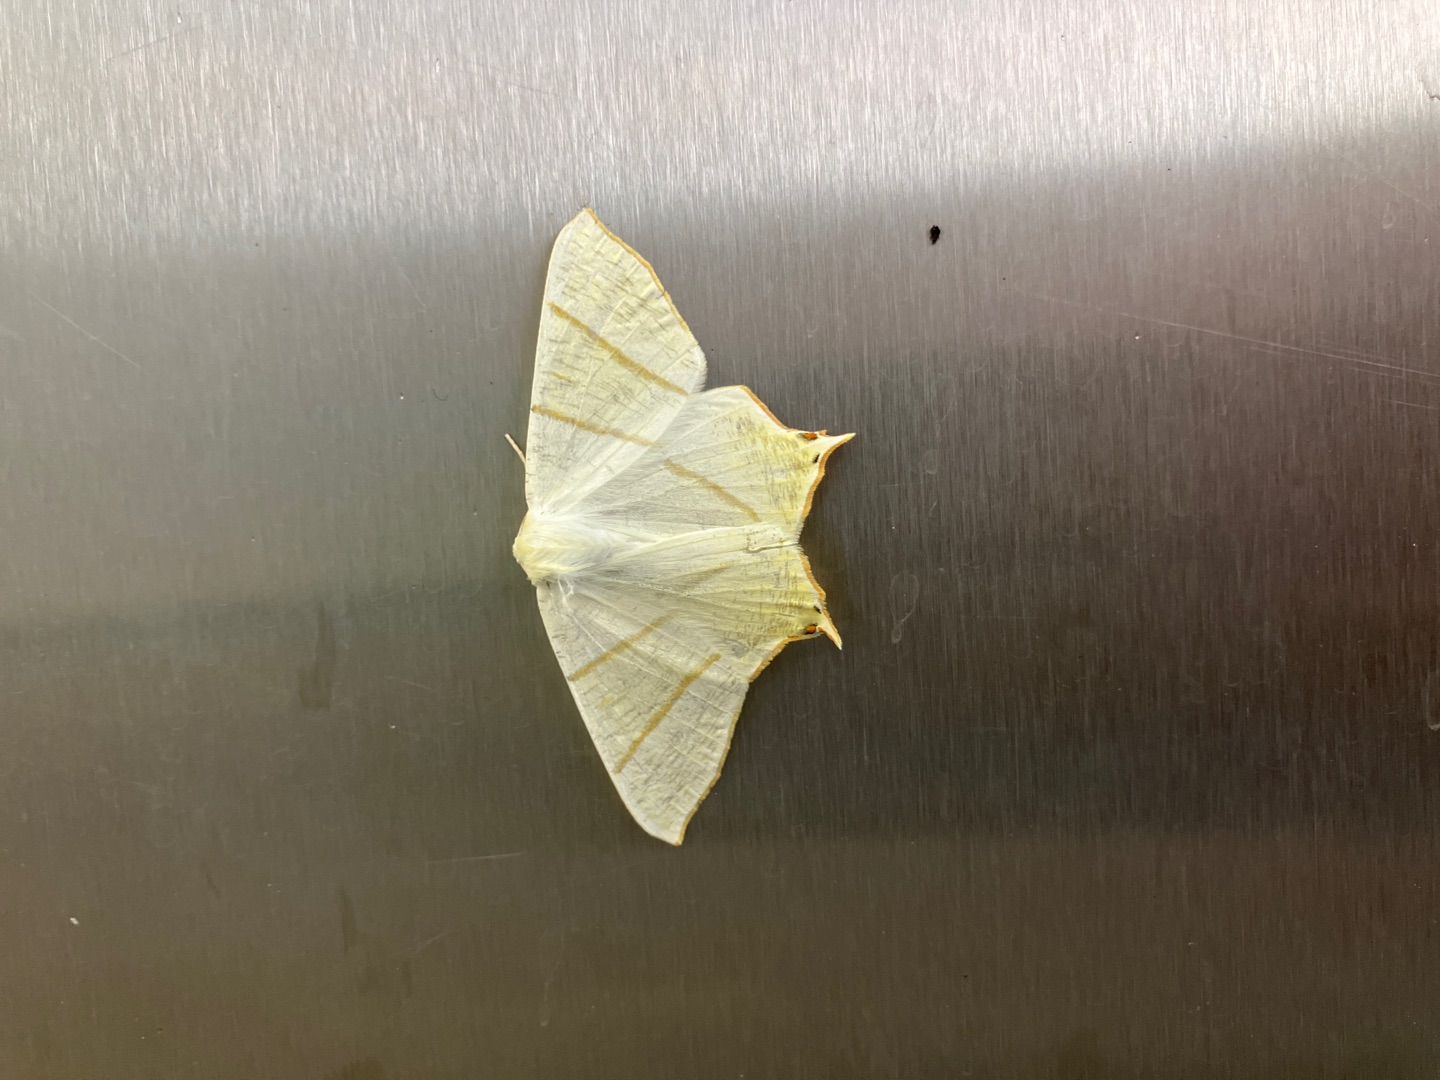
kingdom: Animalia
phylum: Arthropoda
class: Insecta
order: Lepidoptera
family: Geometridae
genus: Ourapteryx
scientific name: Ourapteryx sambucaria
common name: Natsvalehale
